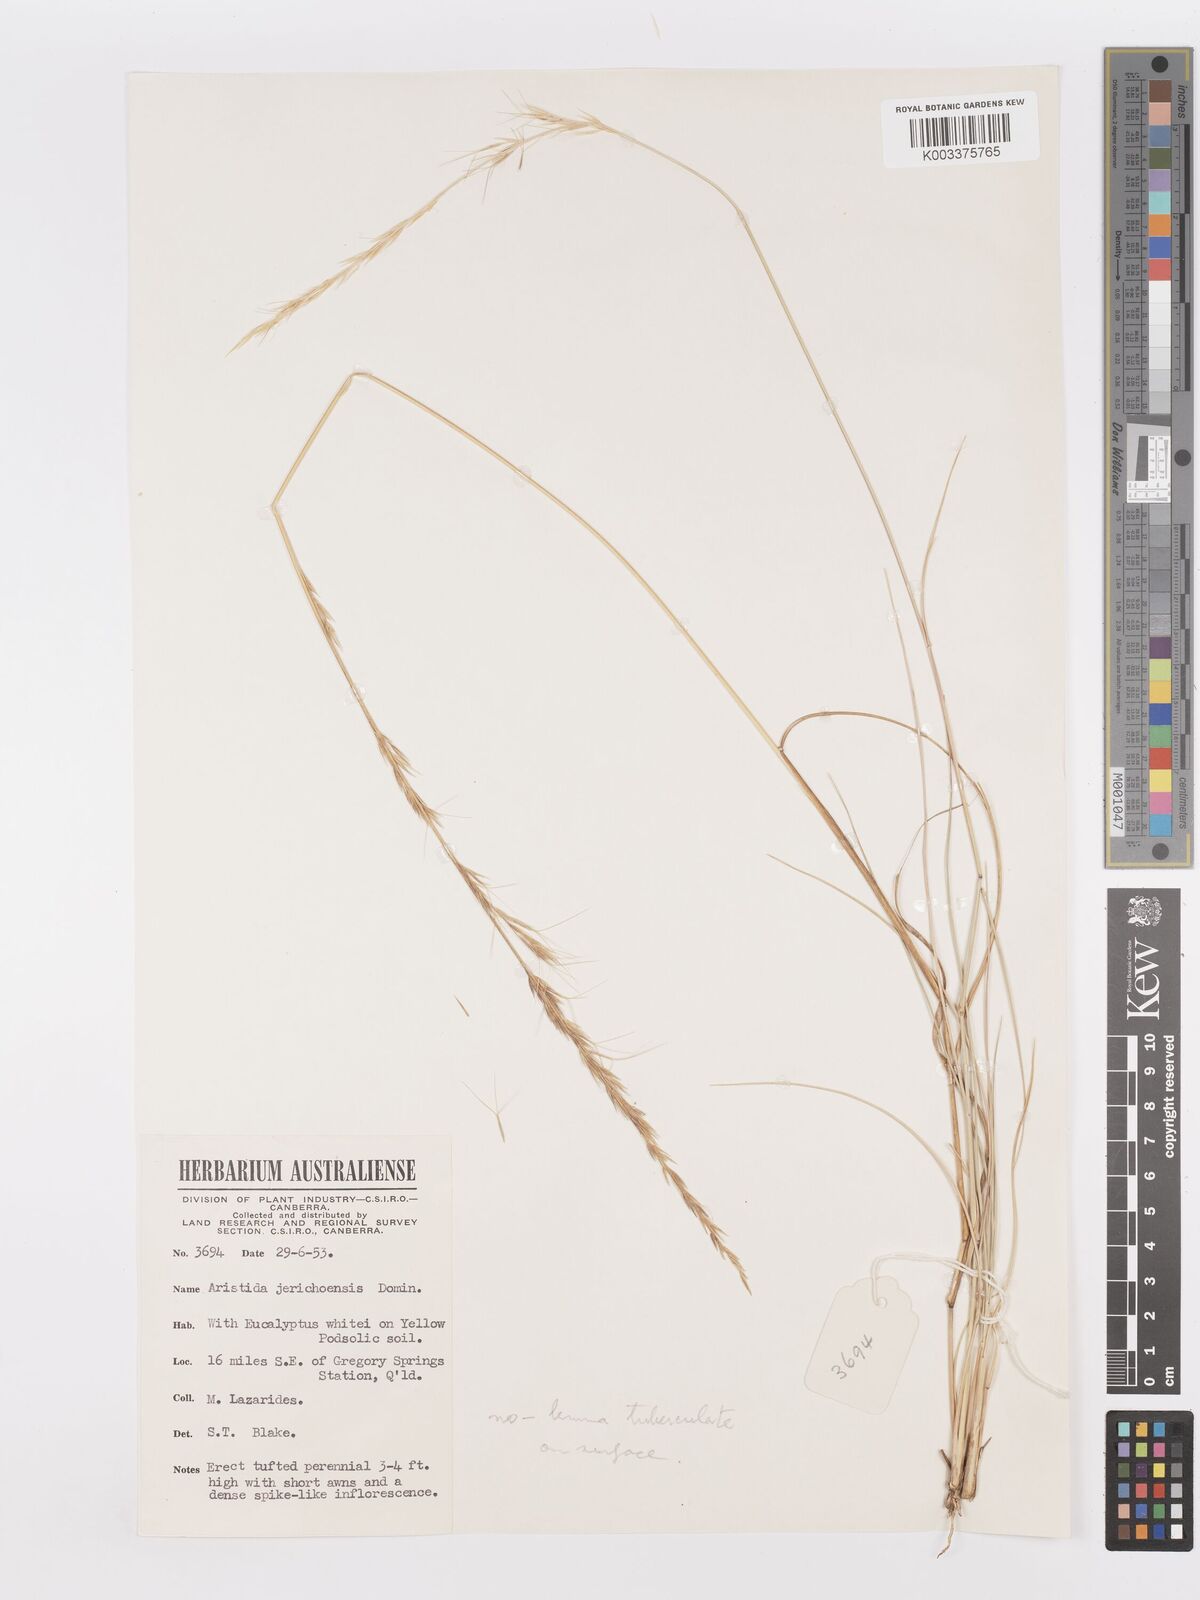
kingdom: Plantae
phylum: Tracheophyta
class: Liliopsida
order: Poales
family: Poaceae
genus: Aristida
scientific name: Aristida
